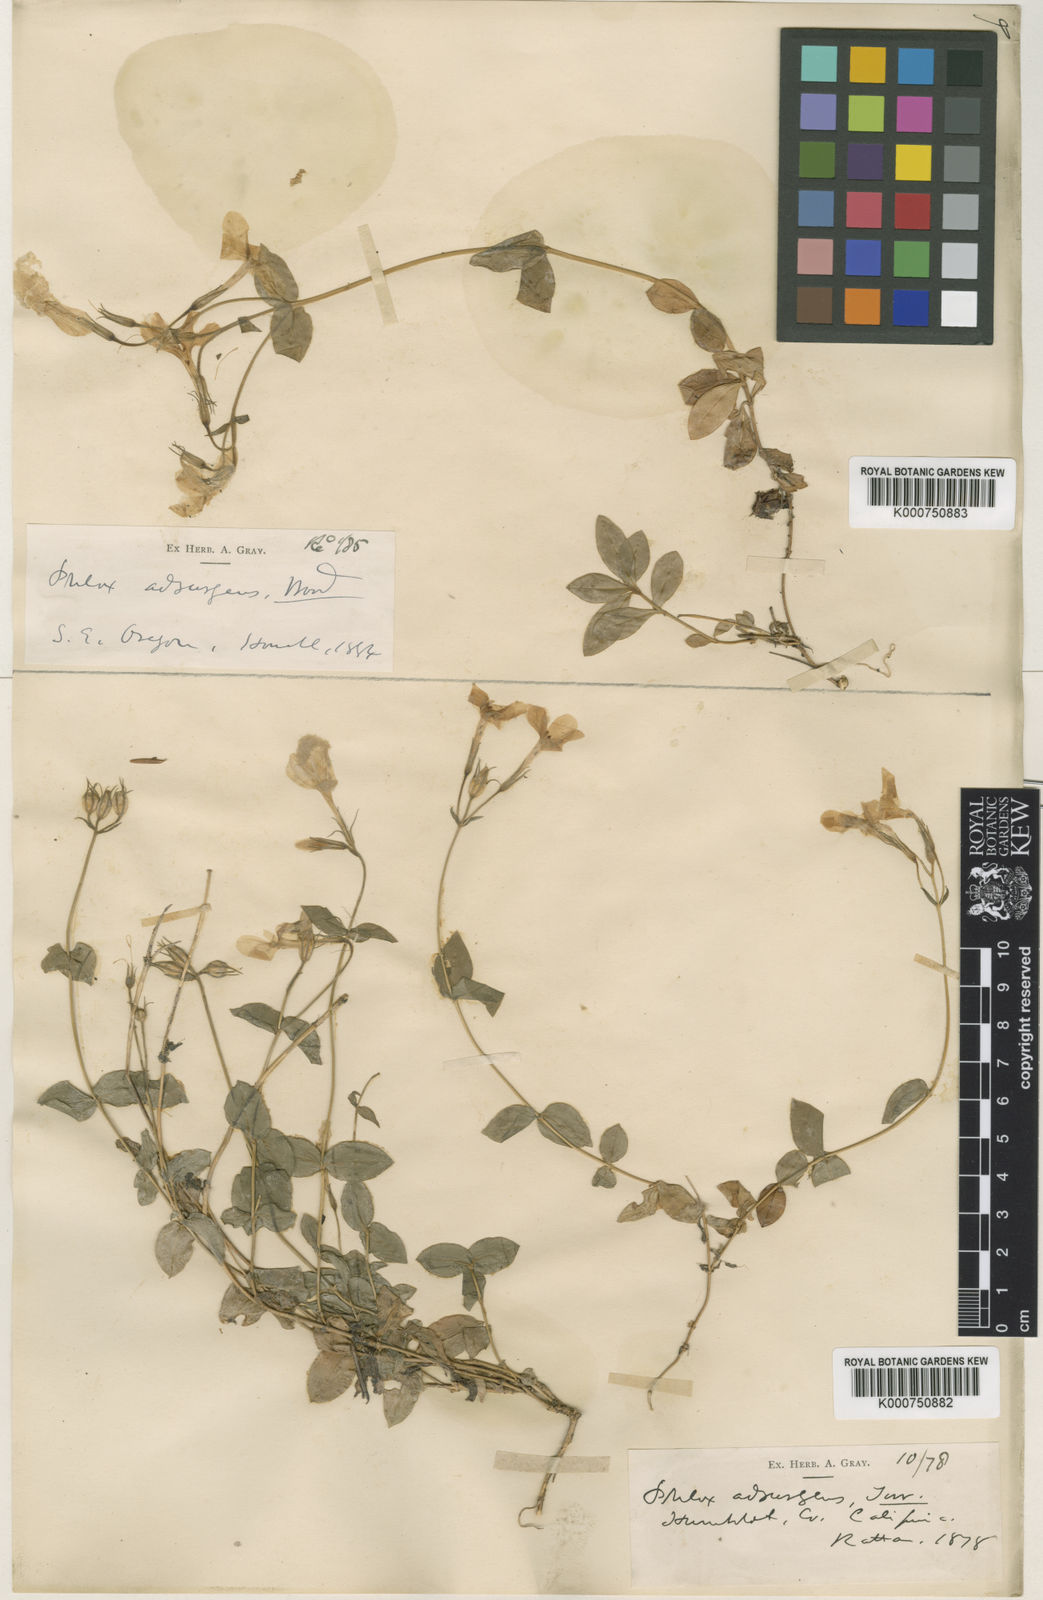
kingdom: Plantae
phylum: Tracheophyta
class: Magnoliopsida
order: Ericales
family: Polemoniaceae
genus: Phlox
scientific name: Phlox adsurgens
